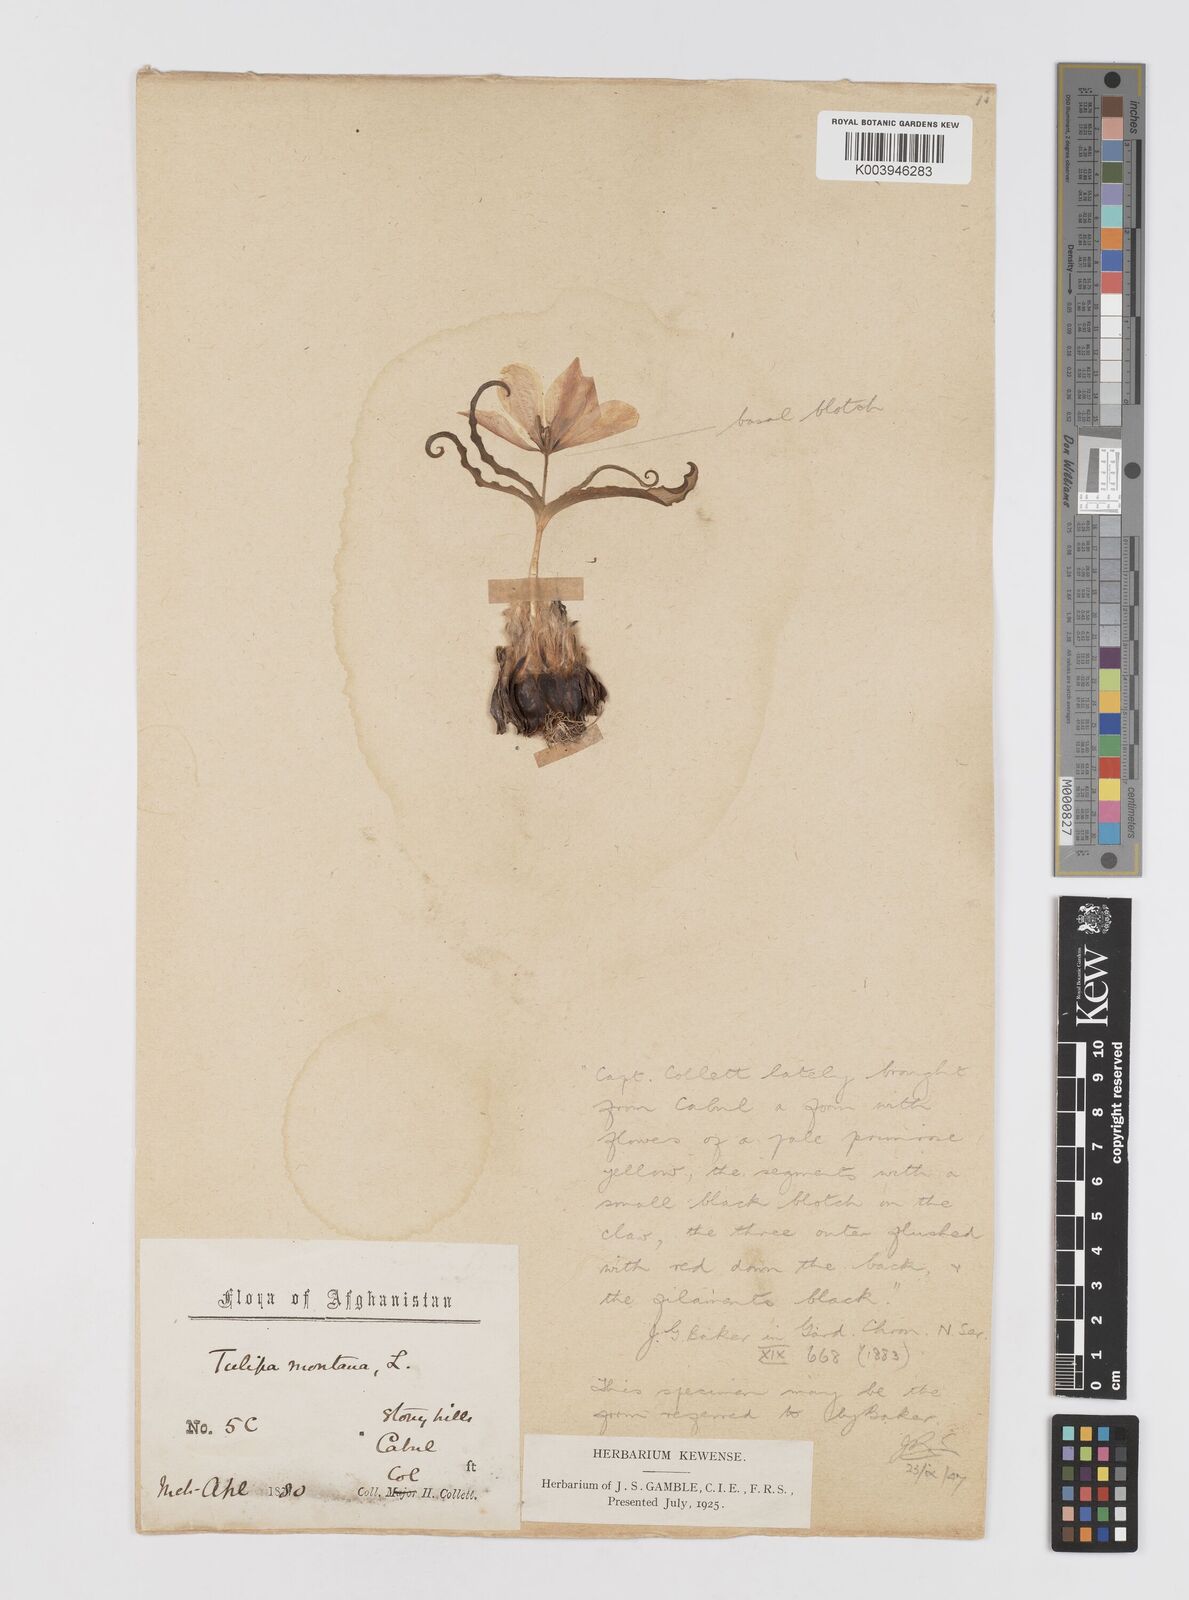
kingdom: Plantae
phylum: Tracheophyta
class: Liliopsida
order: Liliales
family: Liliaceae
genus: Tulipa
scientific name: Tulipa clusiana
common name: Lady tulip
